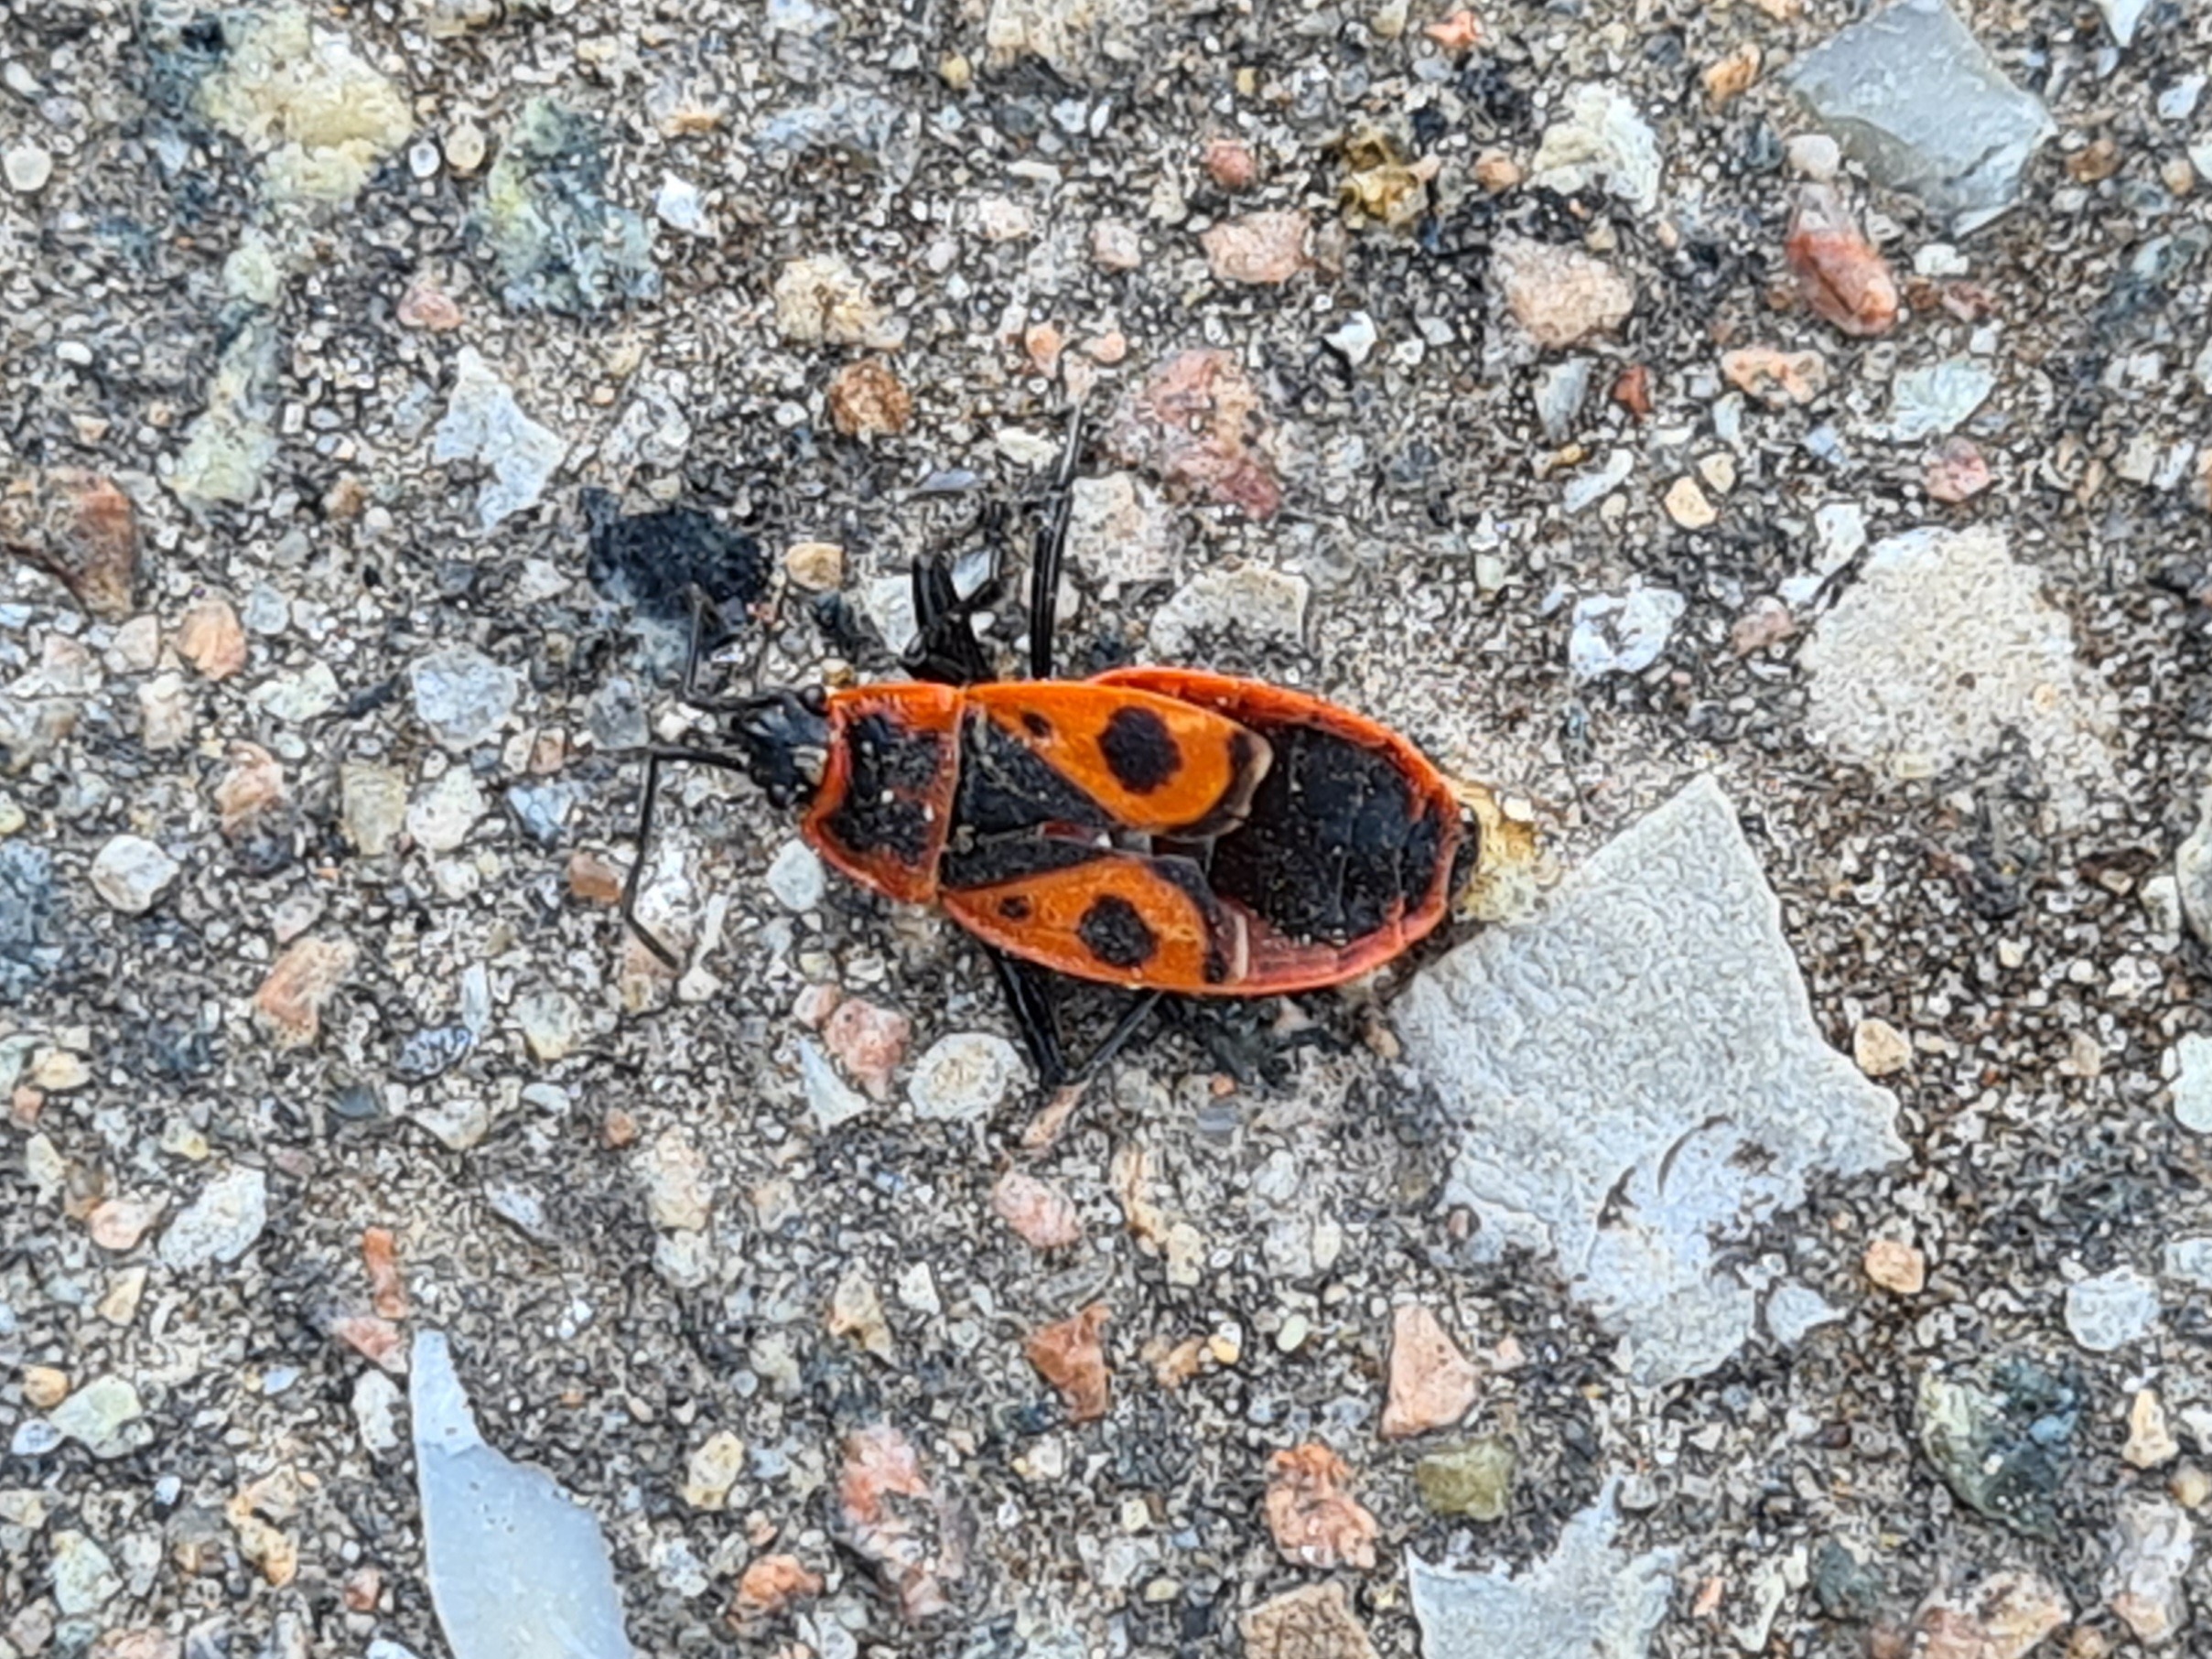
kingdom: Animalia
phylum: Arthropoda
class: Insecta
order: Hemiptera
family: Pyrrhocoridae
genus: Pyrrhocoris
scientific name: Pyrrhocoris apterus
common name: Ildtæge
